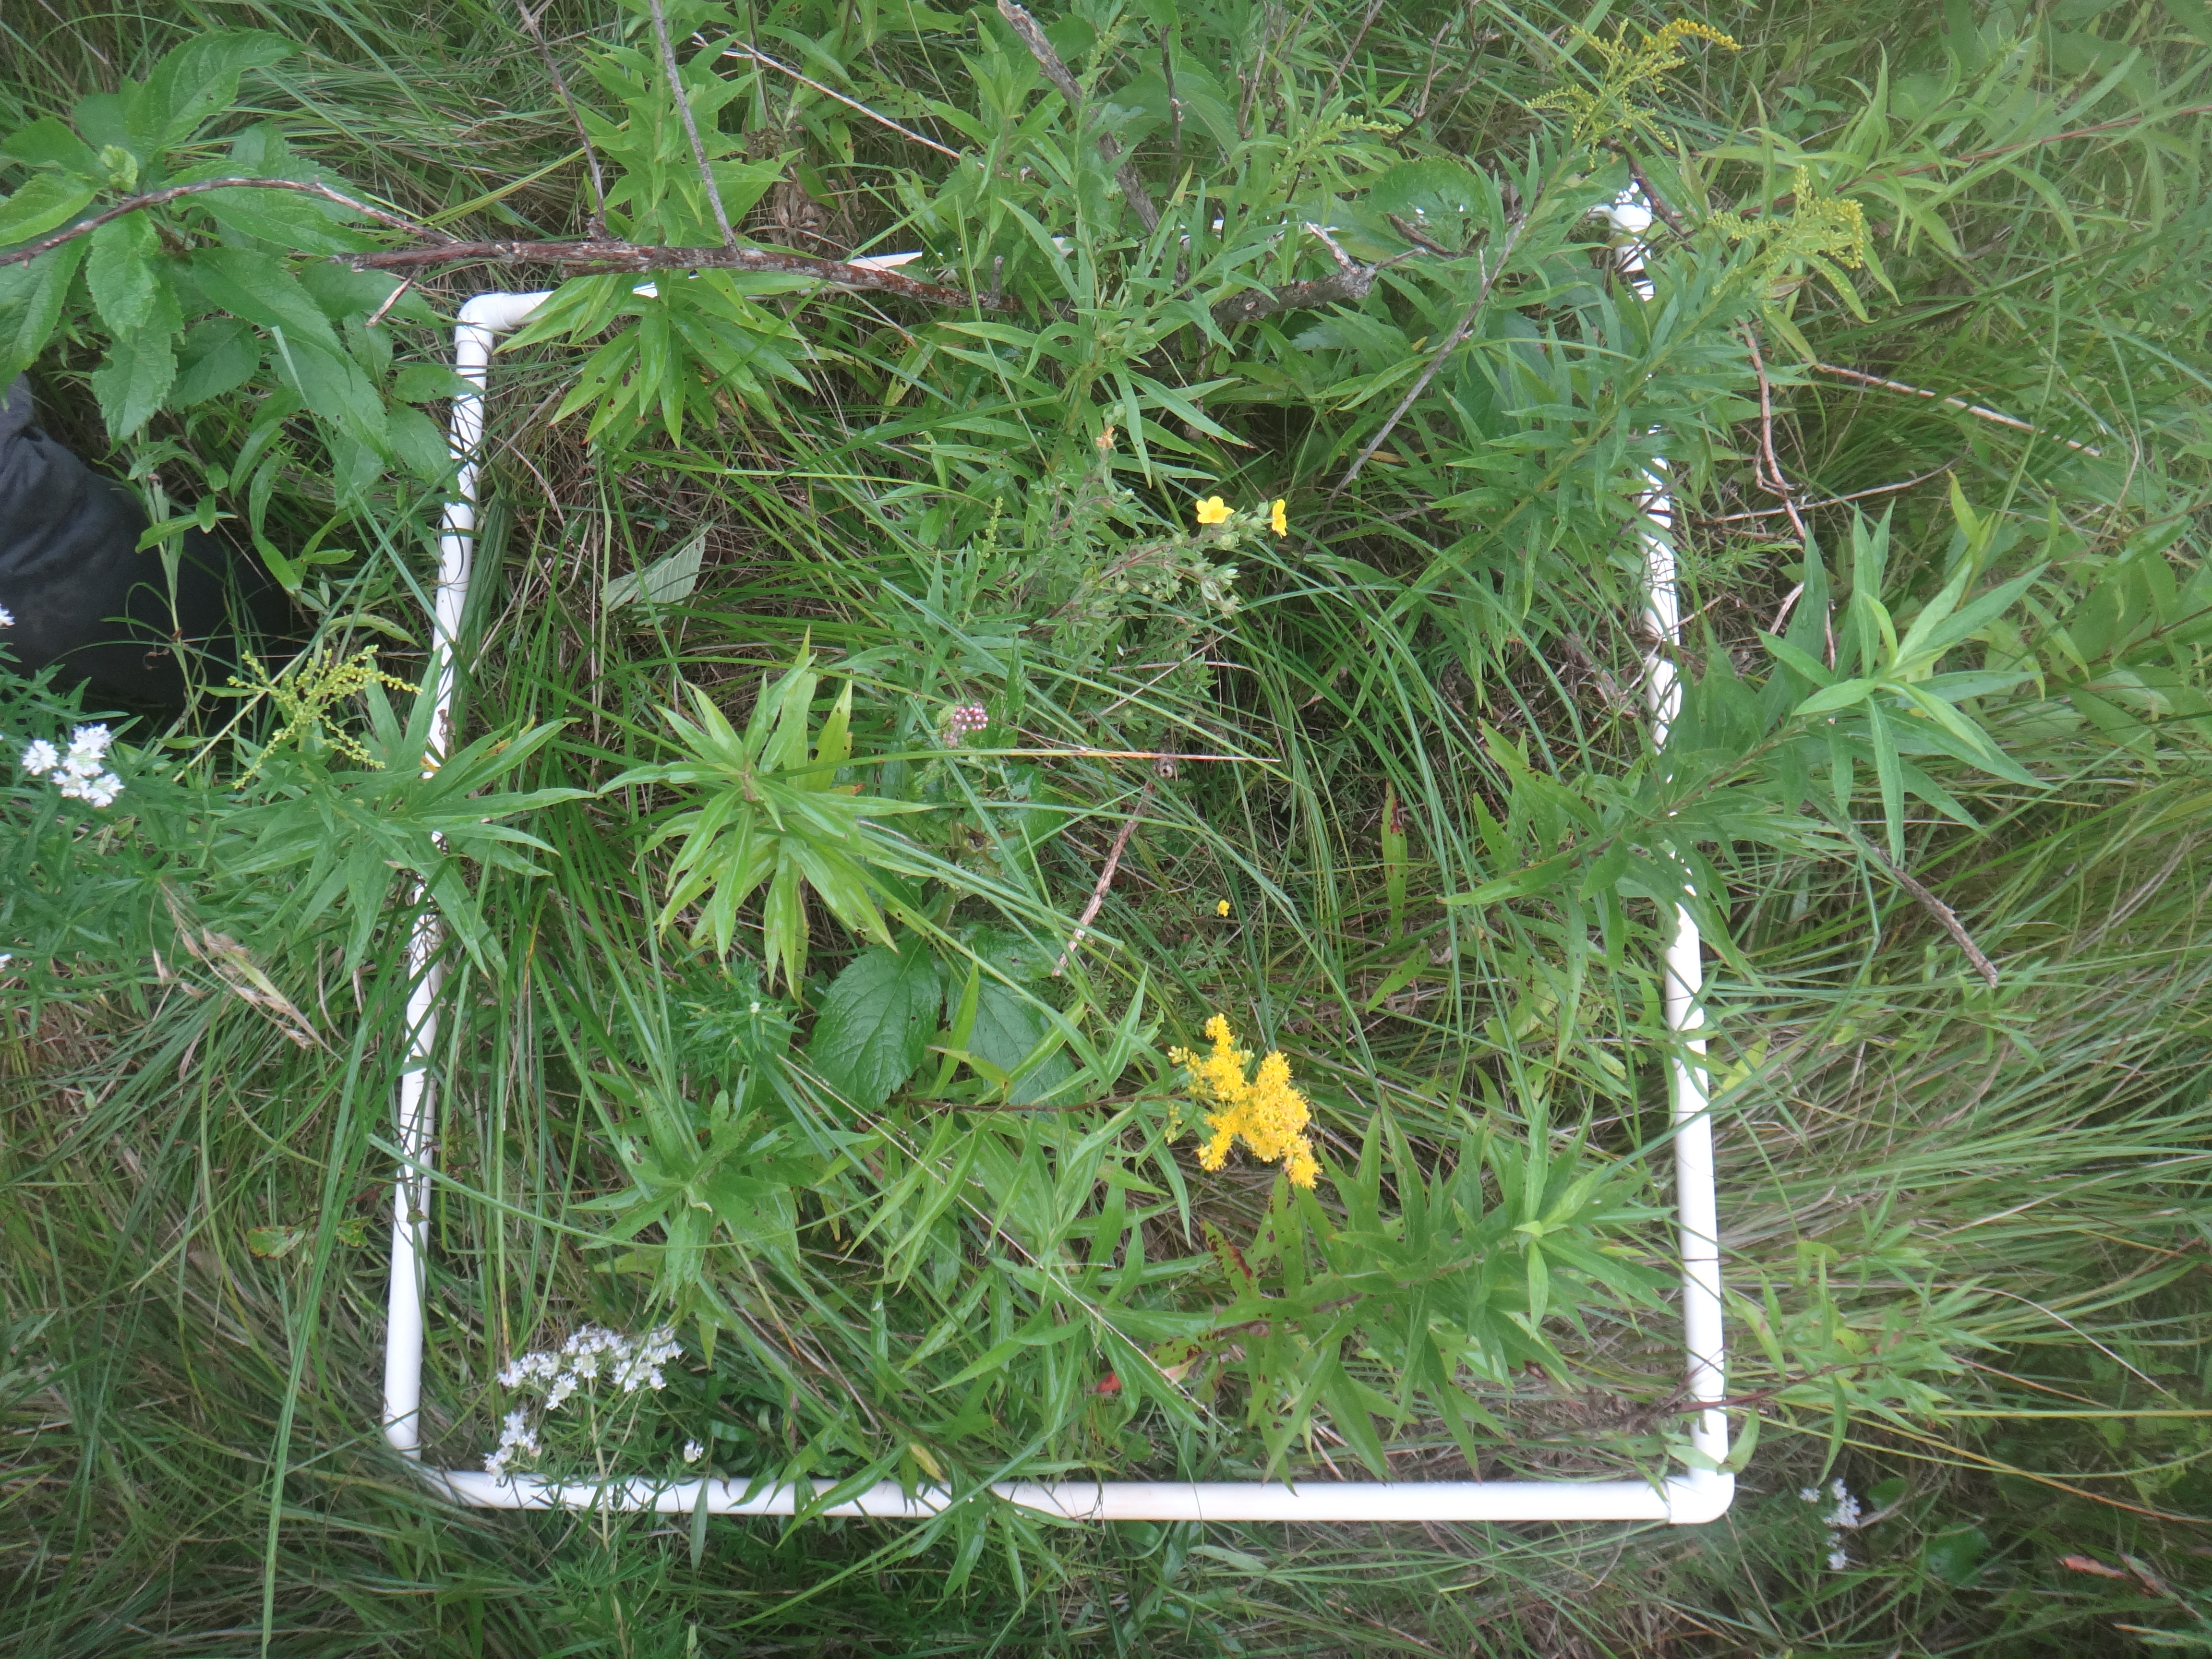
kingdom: Plantae
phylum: Tracheophyta
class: Magnoliopsida
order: Asterales
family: Asteraceae
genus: Eutrochium
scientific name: Eutrochium maculatum
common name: Spotted joe pye weed
